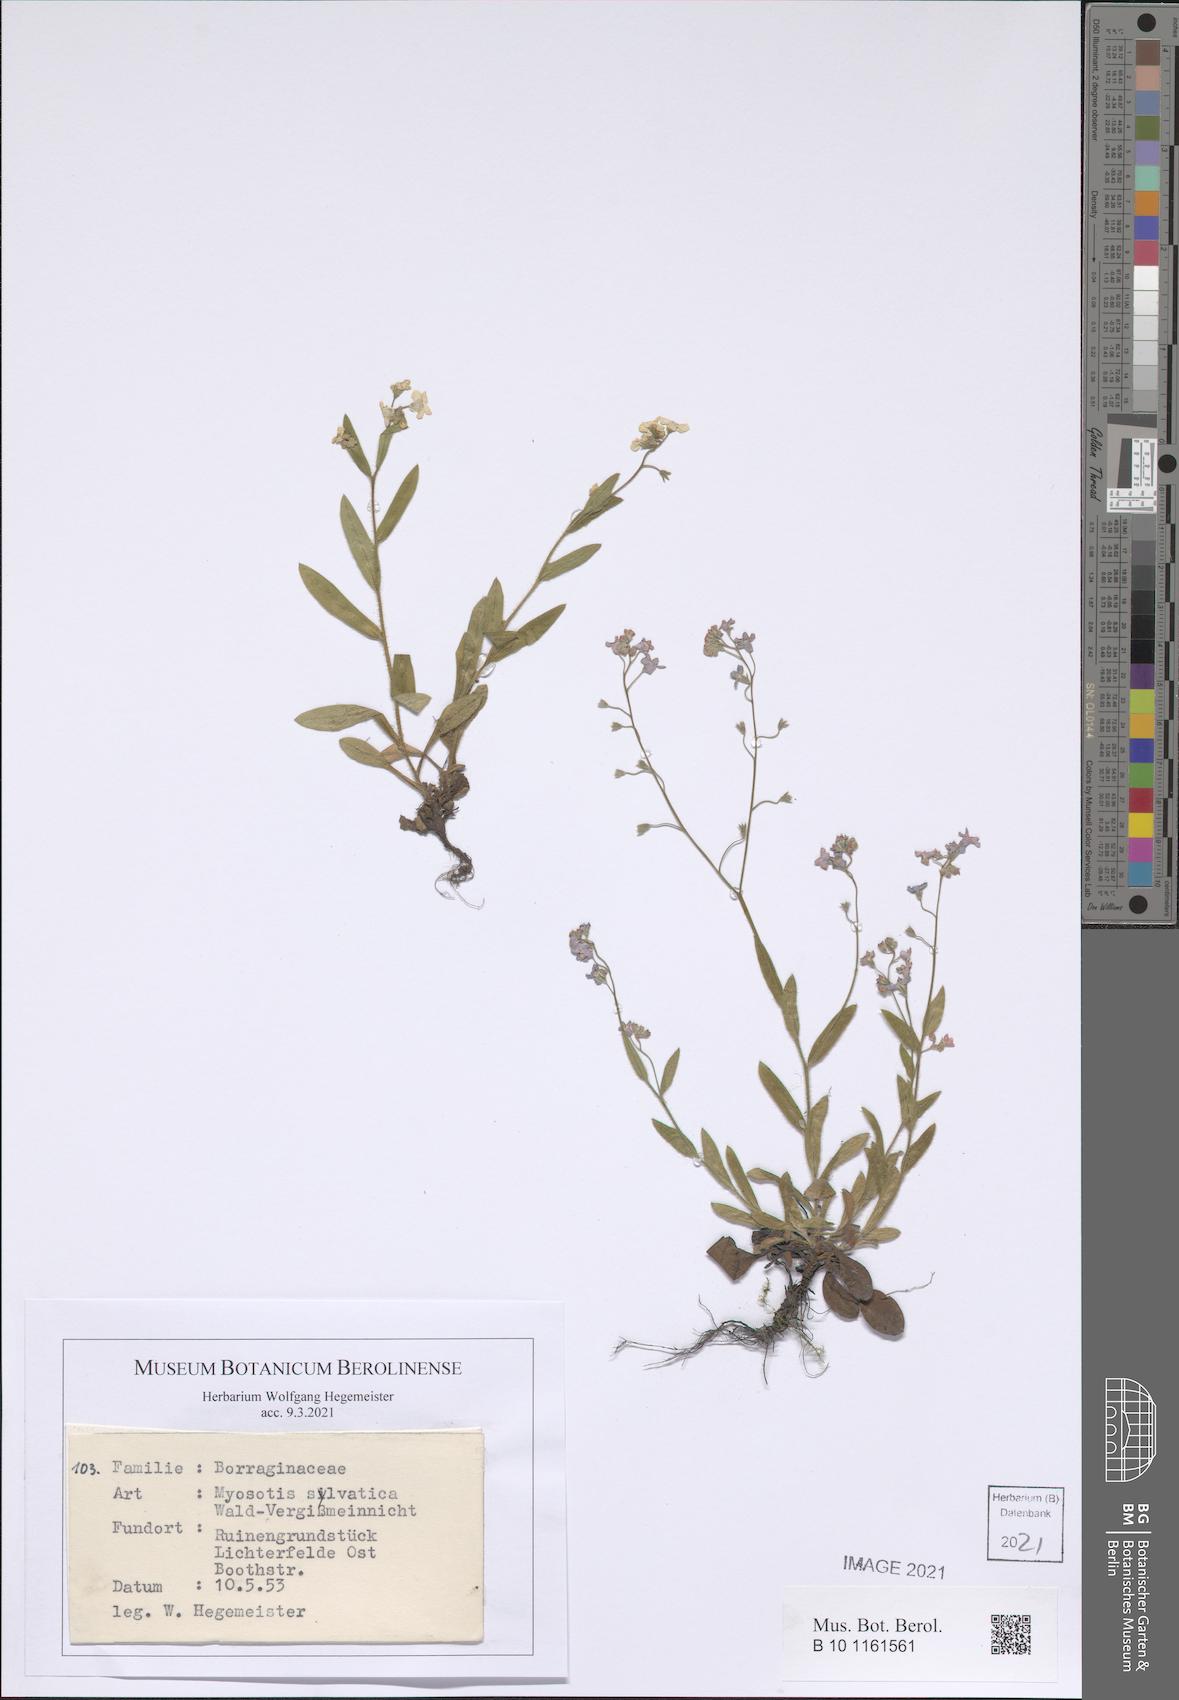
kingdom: Plantae
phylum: Tracheophyta
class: Magnoliopsida
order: Boraginales
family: Boraginaceae
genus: Myosotis
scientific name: Myosotis sylvatica
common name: Wood forget-me-not
